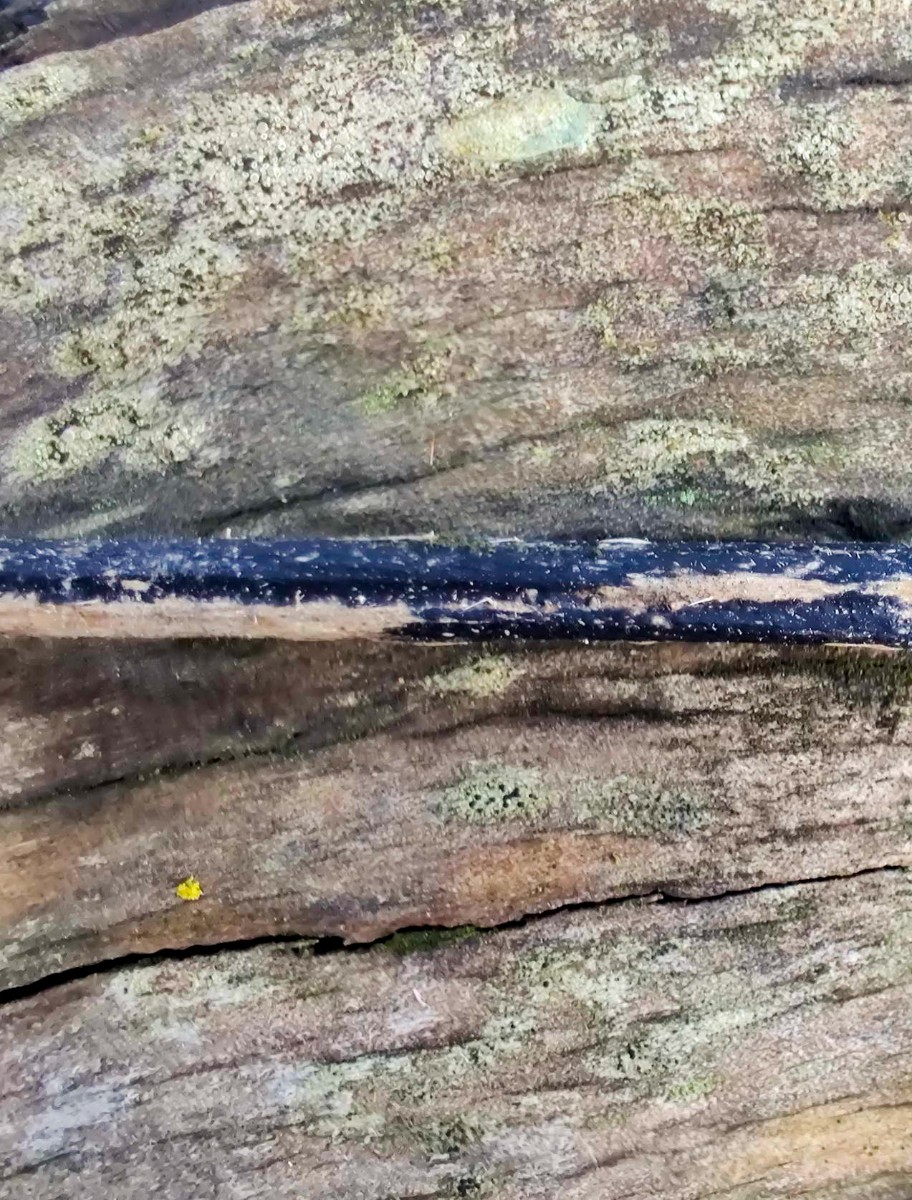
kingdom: Fungi
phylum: Ascomycota
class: Sordariomycetes
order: Diaporthales
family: Diaporthaceae
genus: Diaporthopsis
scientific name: Diaporthopsis urticae
